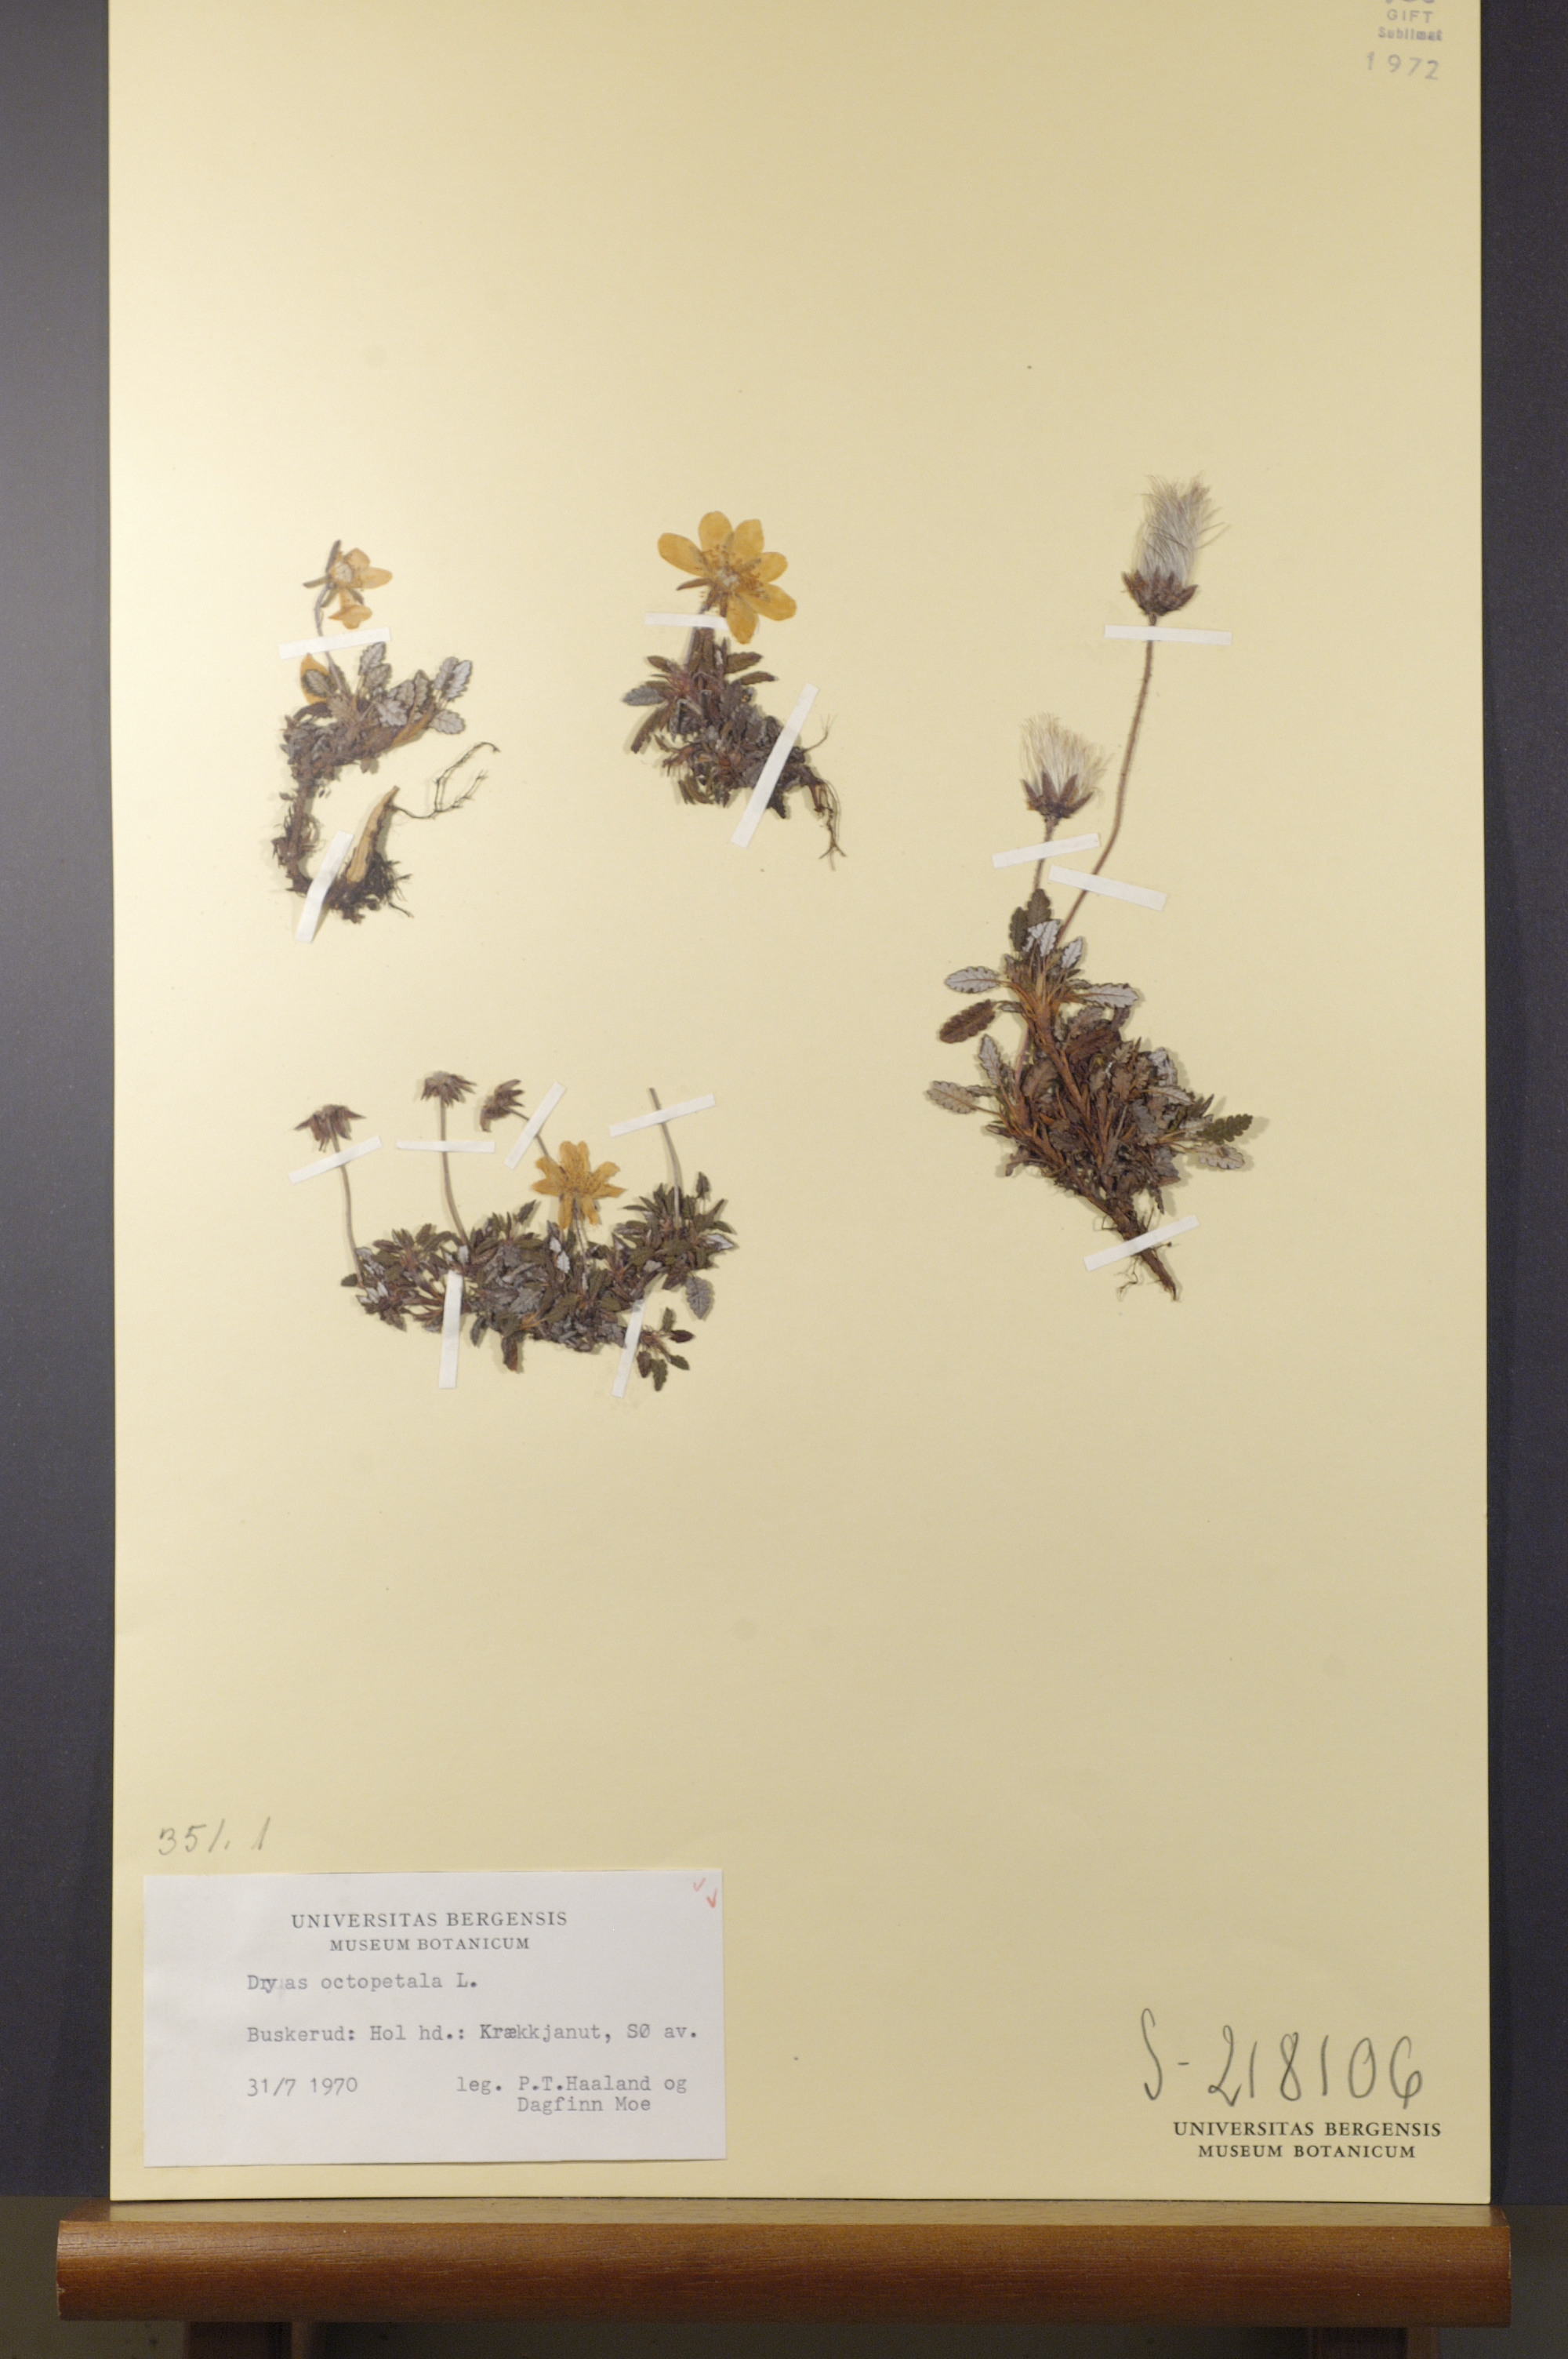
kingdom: Plantae
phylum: Tracheophyta
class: Magnoliopsida
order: Rosales
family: Rosaceae
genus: Dryas
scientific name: Dryas octopetala
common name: Eight-petal mountain-avens
